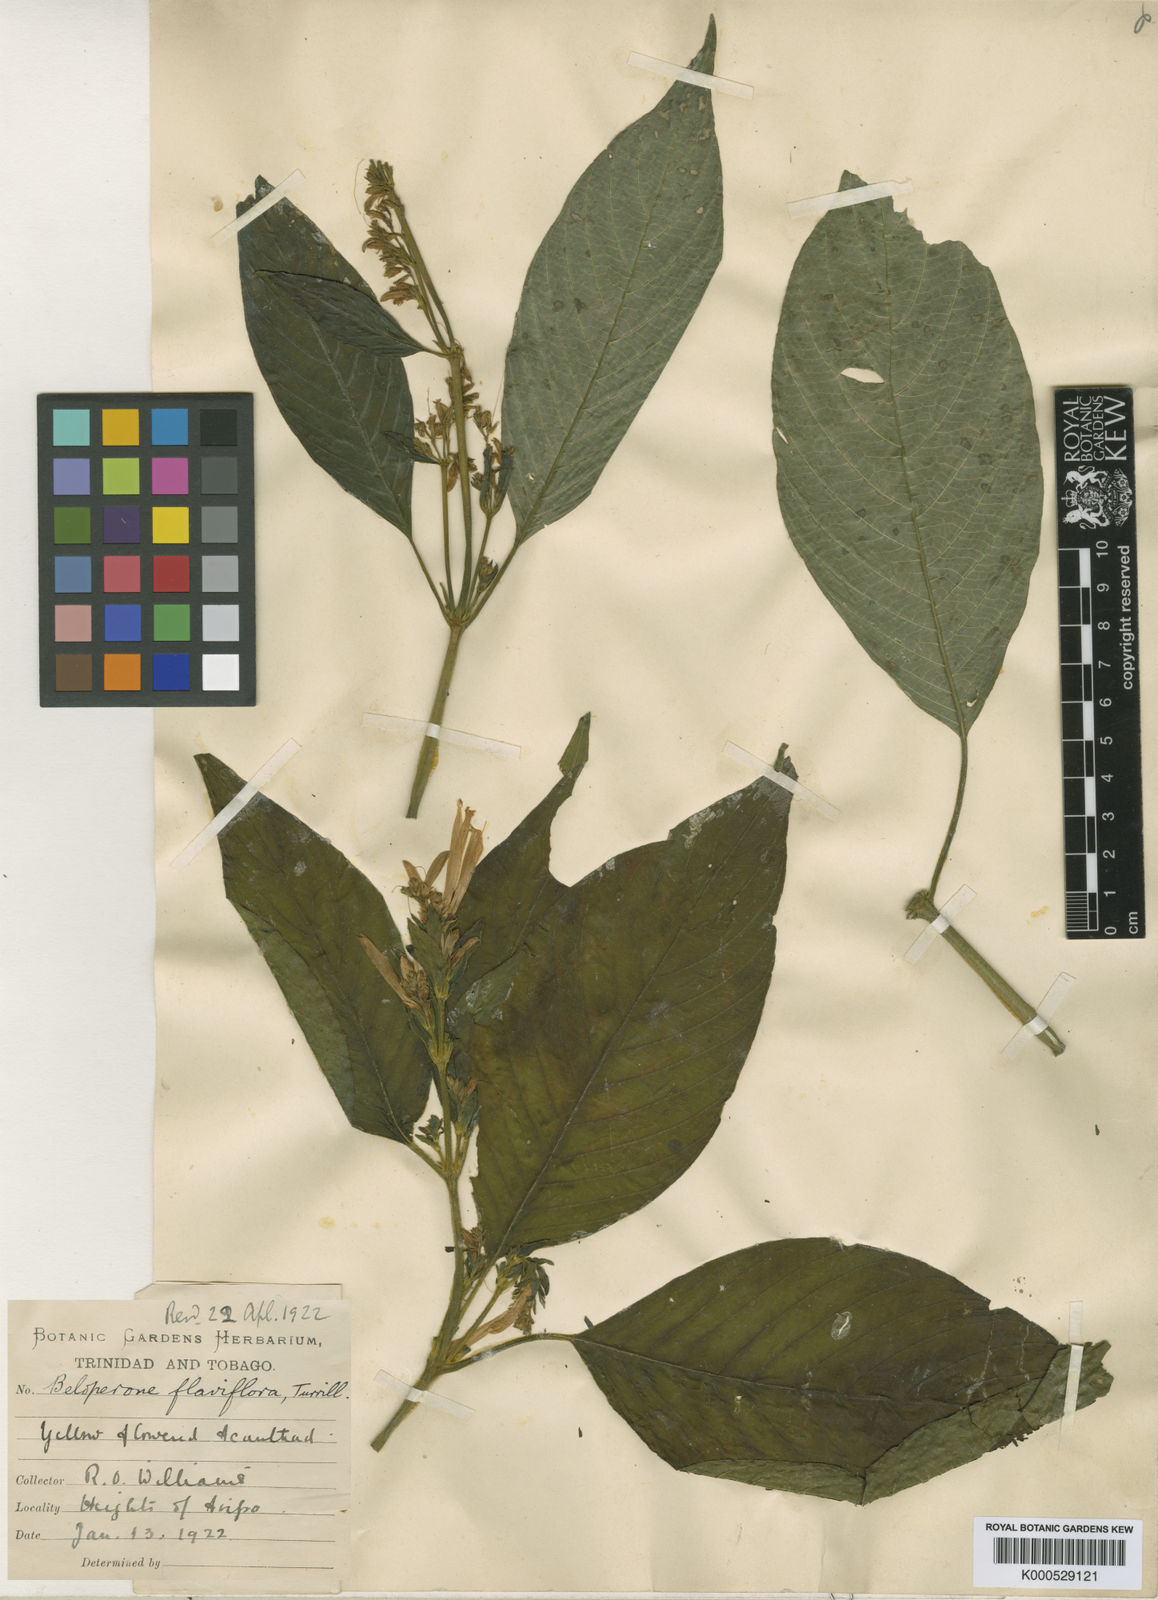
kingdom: Plantae
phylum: Tracheophyta
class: Magnoliopsida
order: Lamiales
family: Acanthaceae
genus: Justicia
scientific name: Justicia flaviflora
